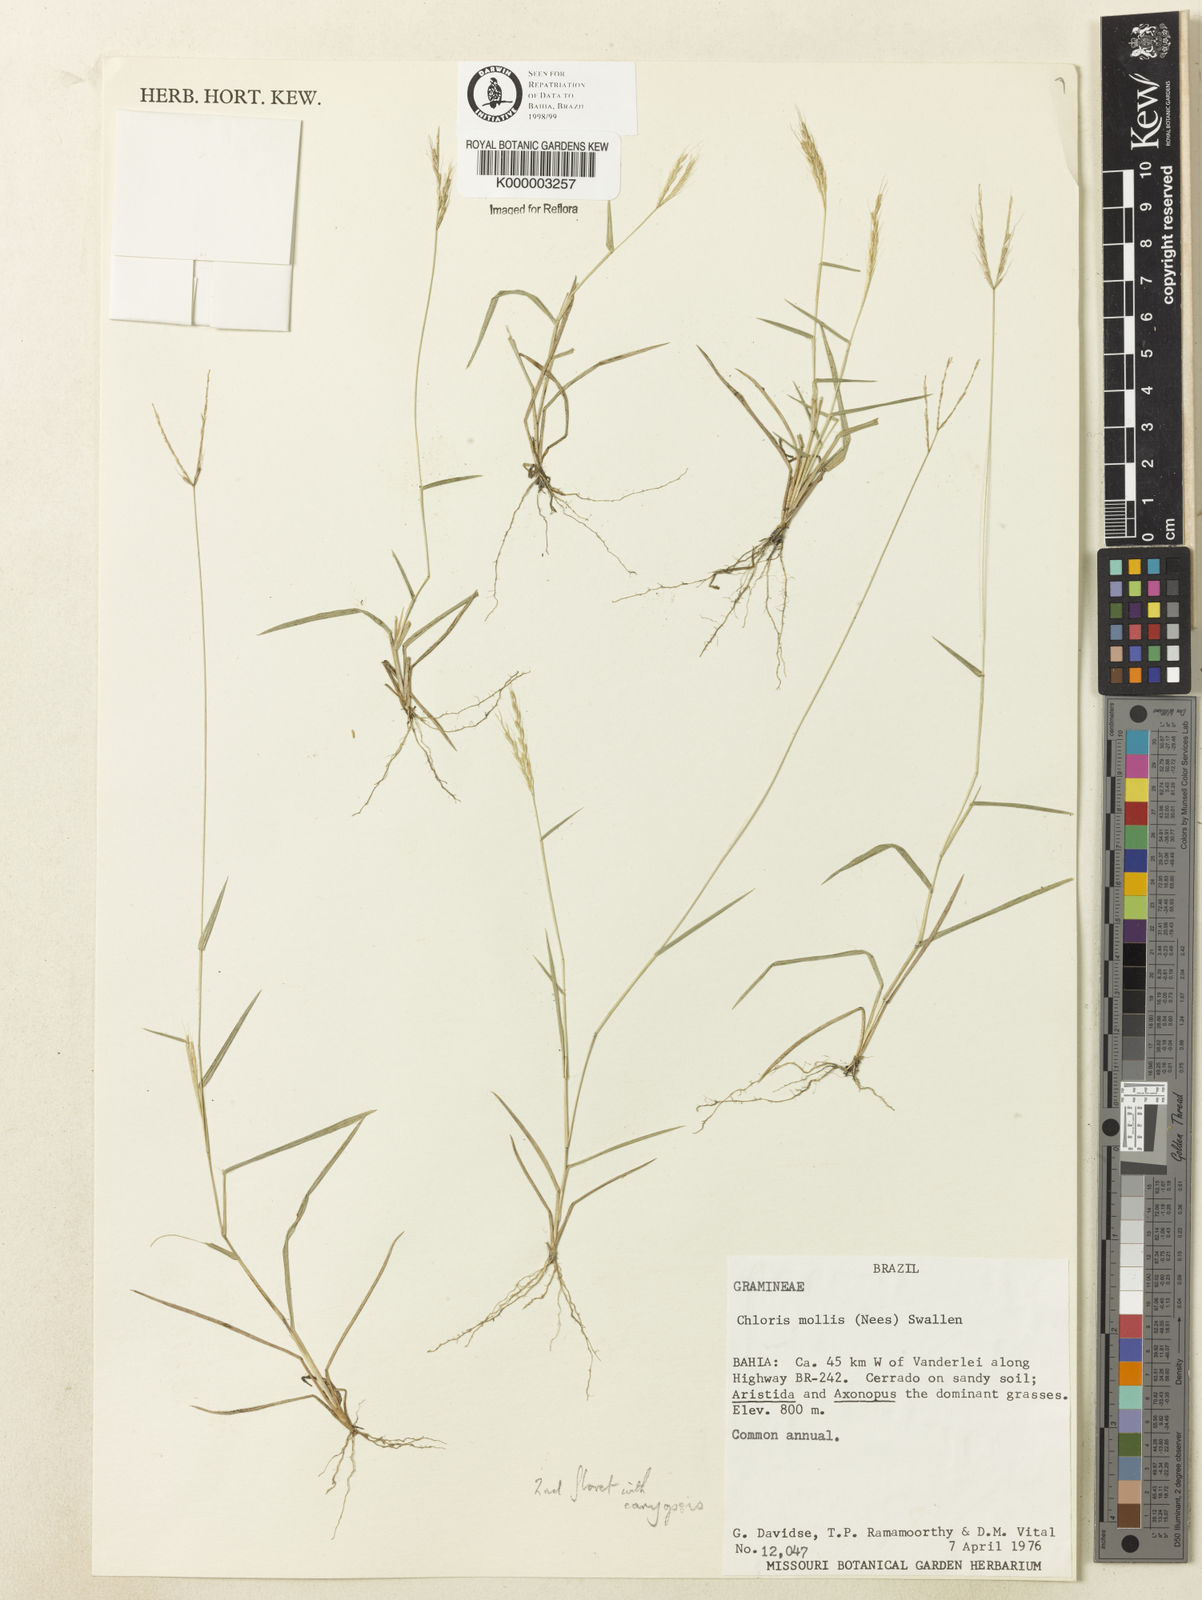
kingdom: Plantae
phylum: Tracheophyta
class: Liliopsida
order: Poales
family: Poaceae
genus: Leptochloa
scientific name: Leptochloa exilis
